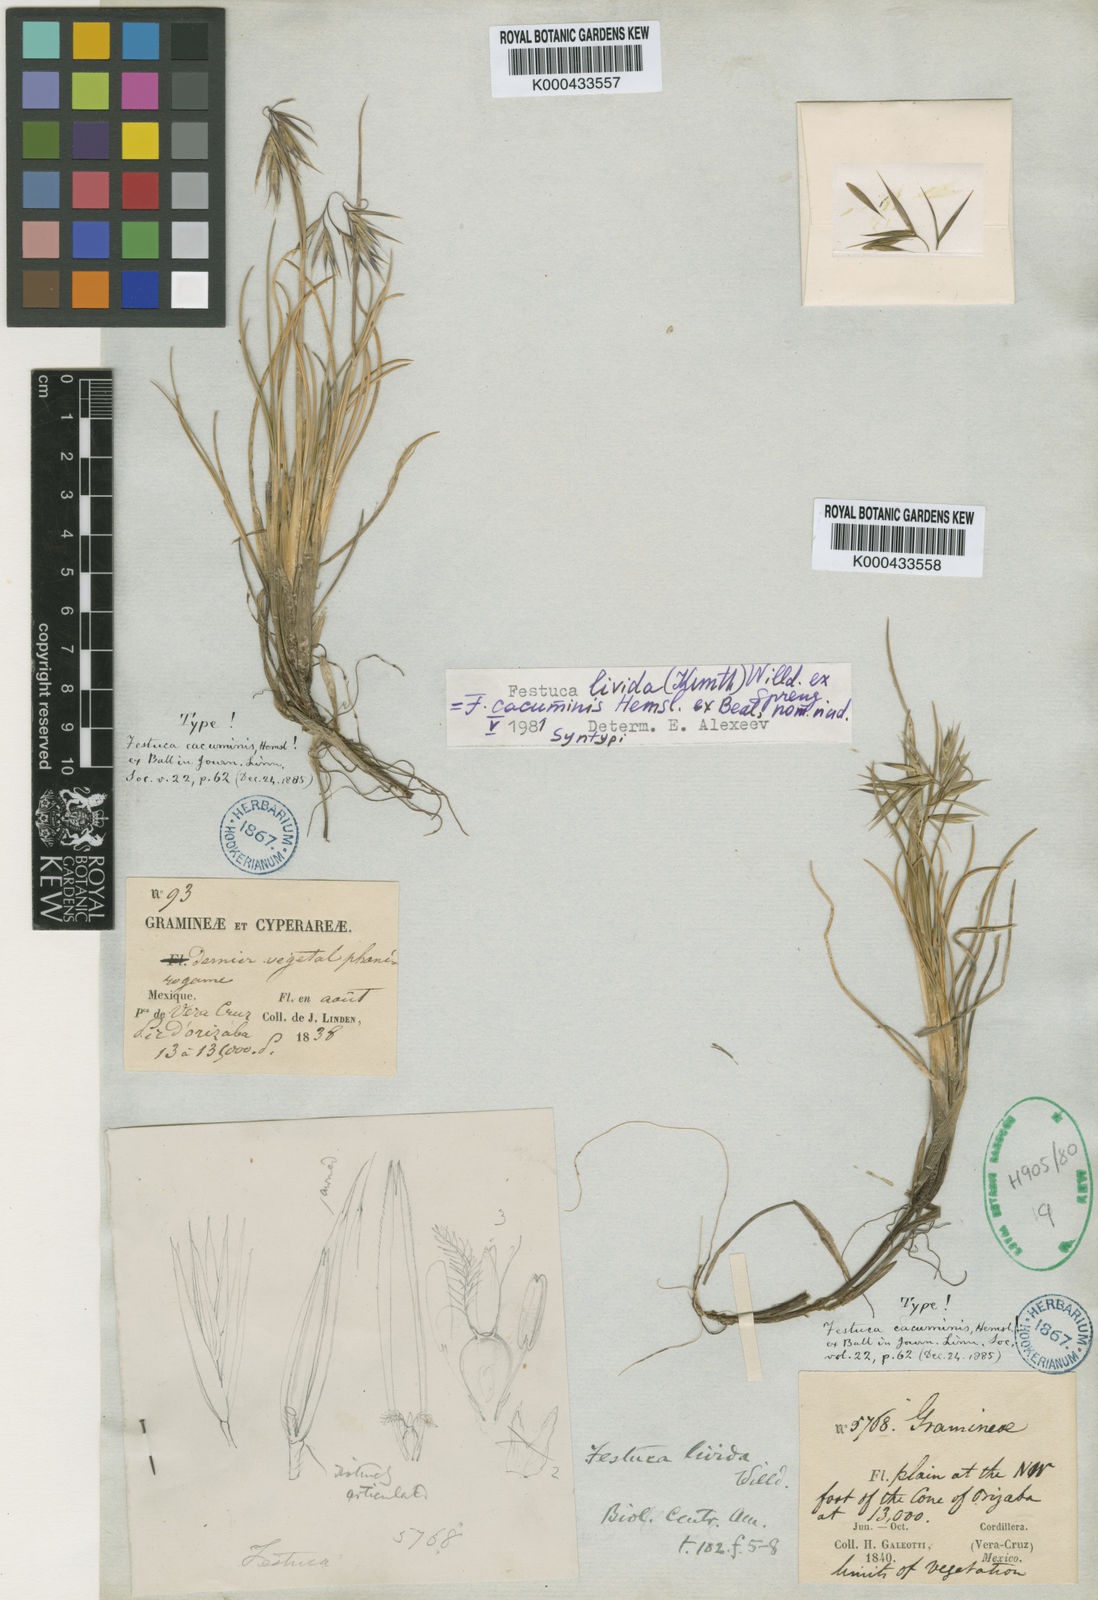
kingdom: Plantae
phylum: Tracheophyta
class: Liliopsida
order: Poales
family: Poaceae
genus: Festuca
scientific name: Festuca livida
